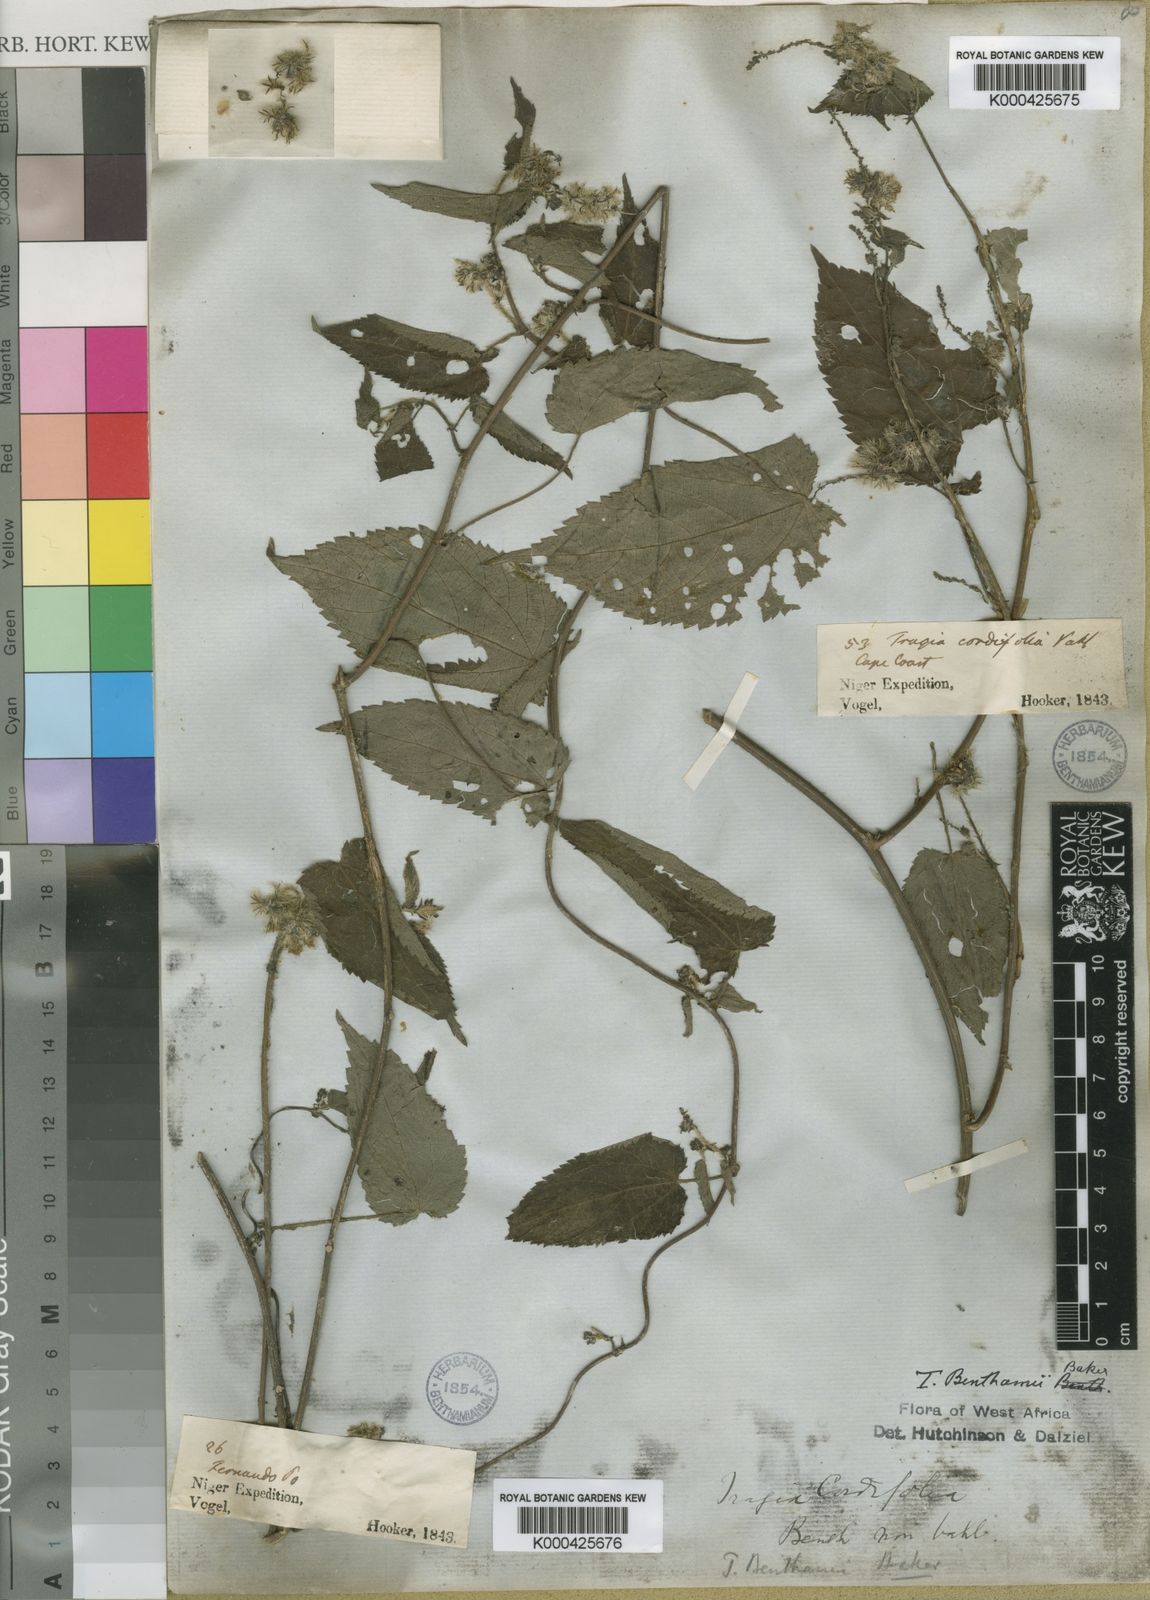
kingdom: Plantae
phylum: Tracheophyta
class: Magnoliopsida
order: Malpighiales
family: Euphorbiaceae
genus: Tragia
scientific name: Tragia benthamii
